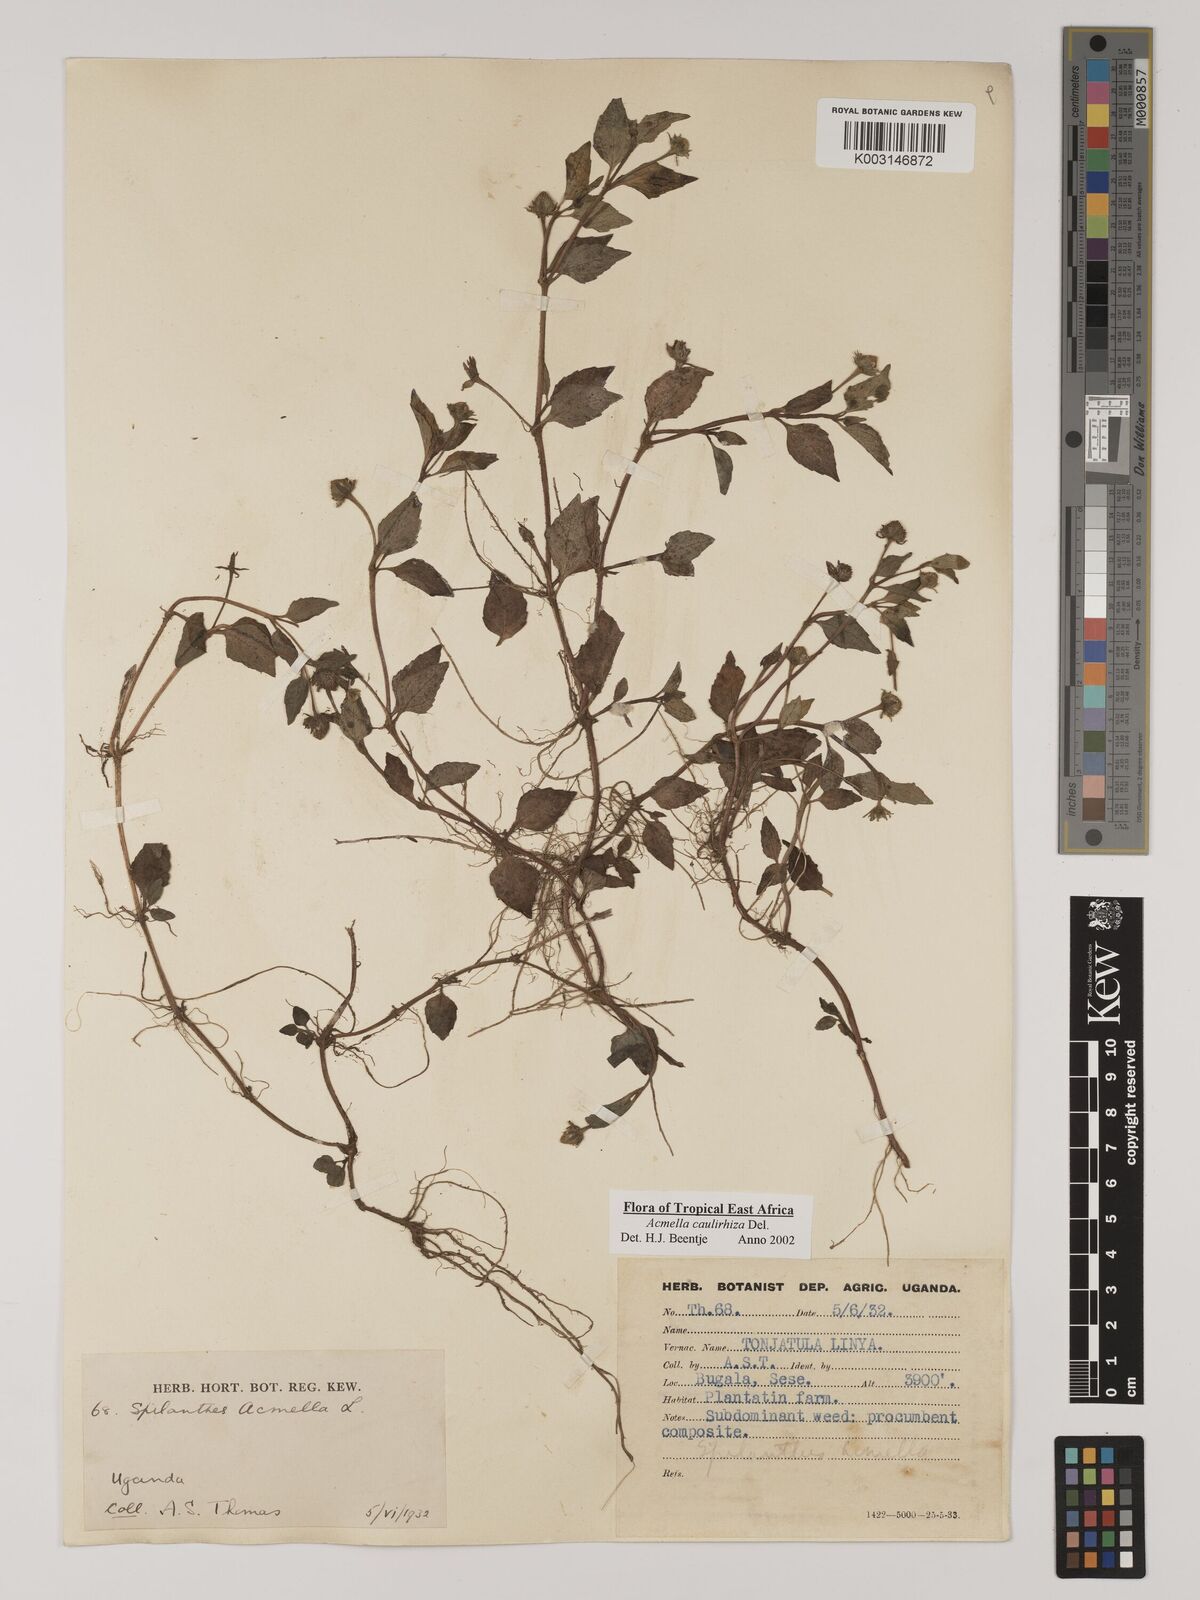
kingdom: Plantae
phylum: Tracheophyta
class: Magnoliopsida
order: Asterales
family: Asteraceae
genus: Acmella
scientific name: Acmella caulirhiza
